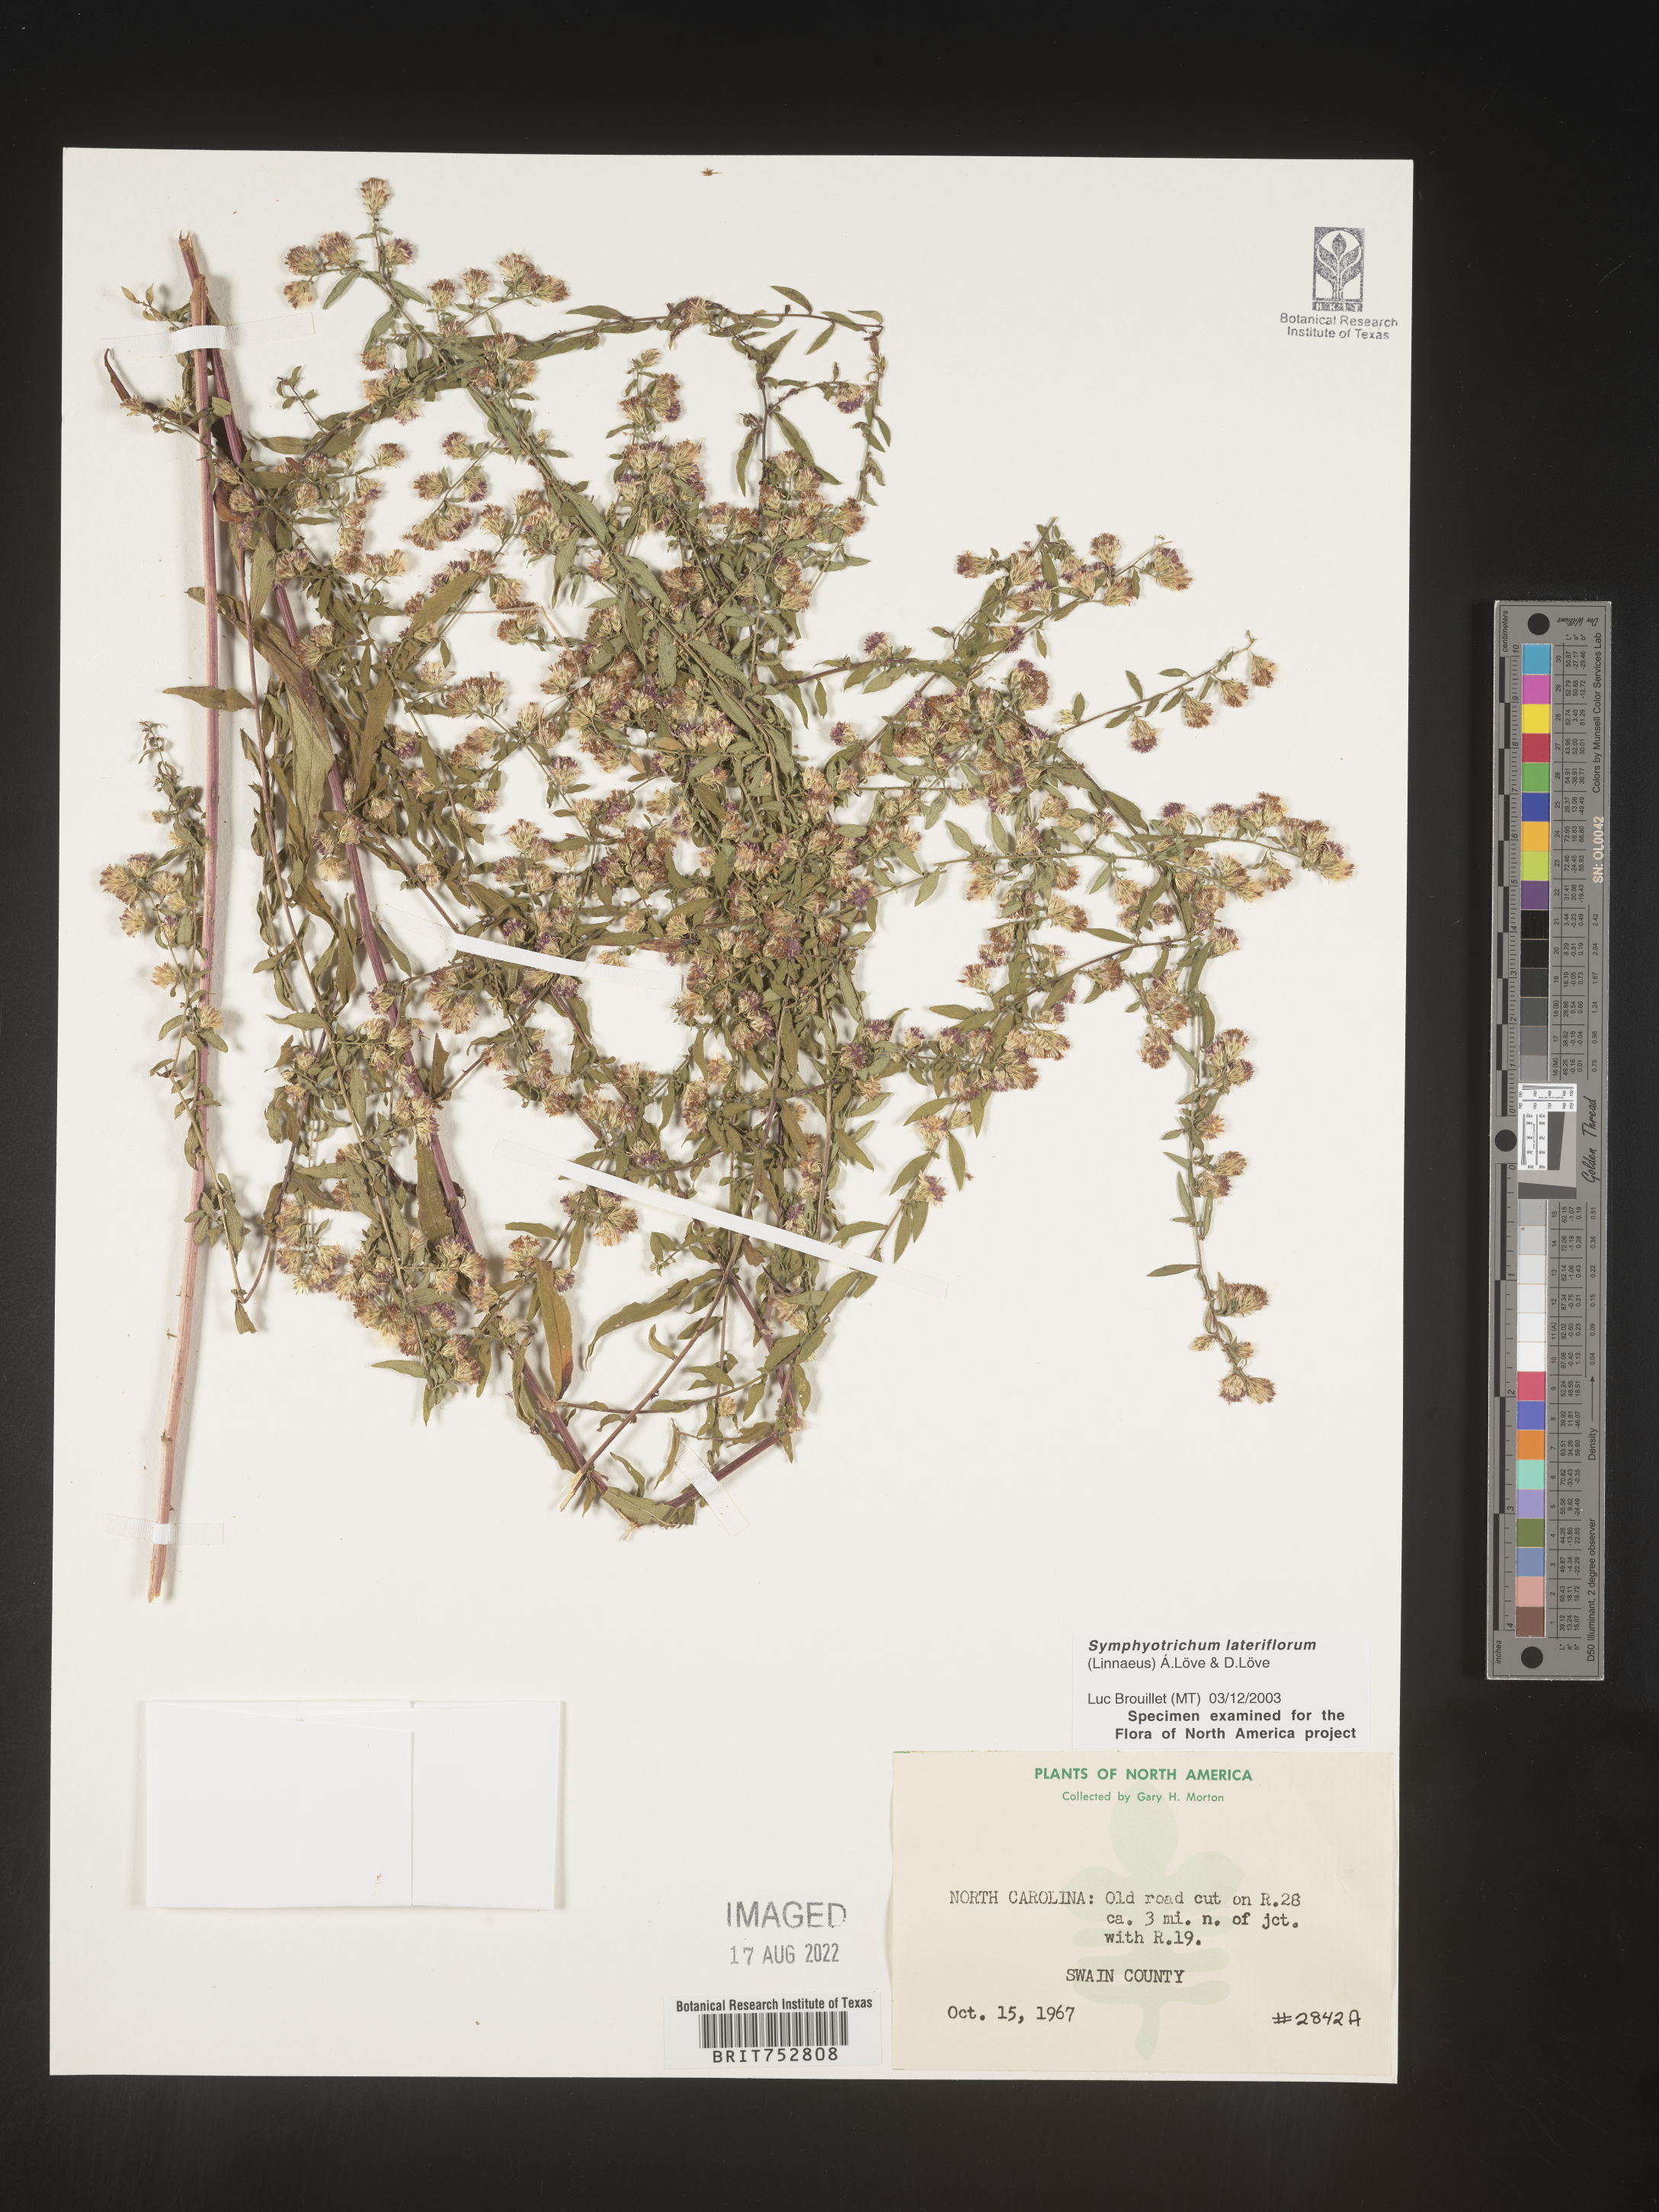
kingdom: Plantae
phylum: Tracheophyta
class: Magnoliopsida
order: Asterales
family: Asteraceae
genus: Symphyotrichum
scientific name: Symphyotrichum lateriflorum
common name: Calico aster
